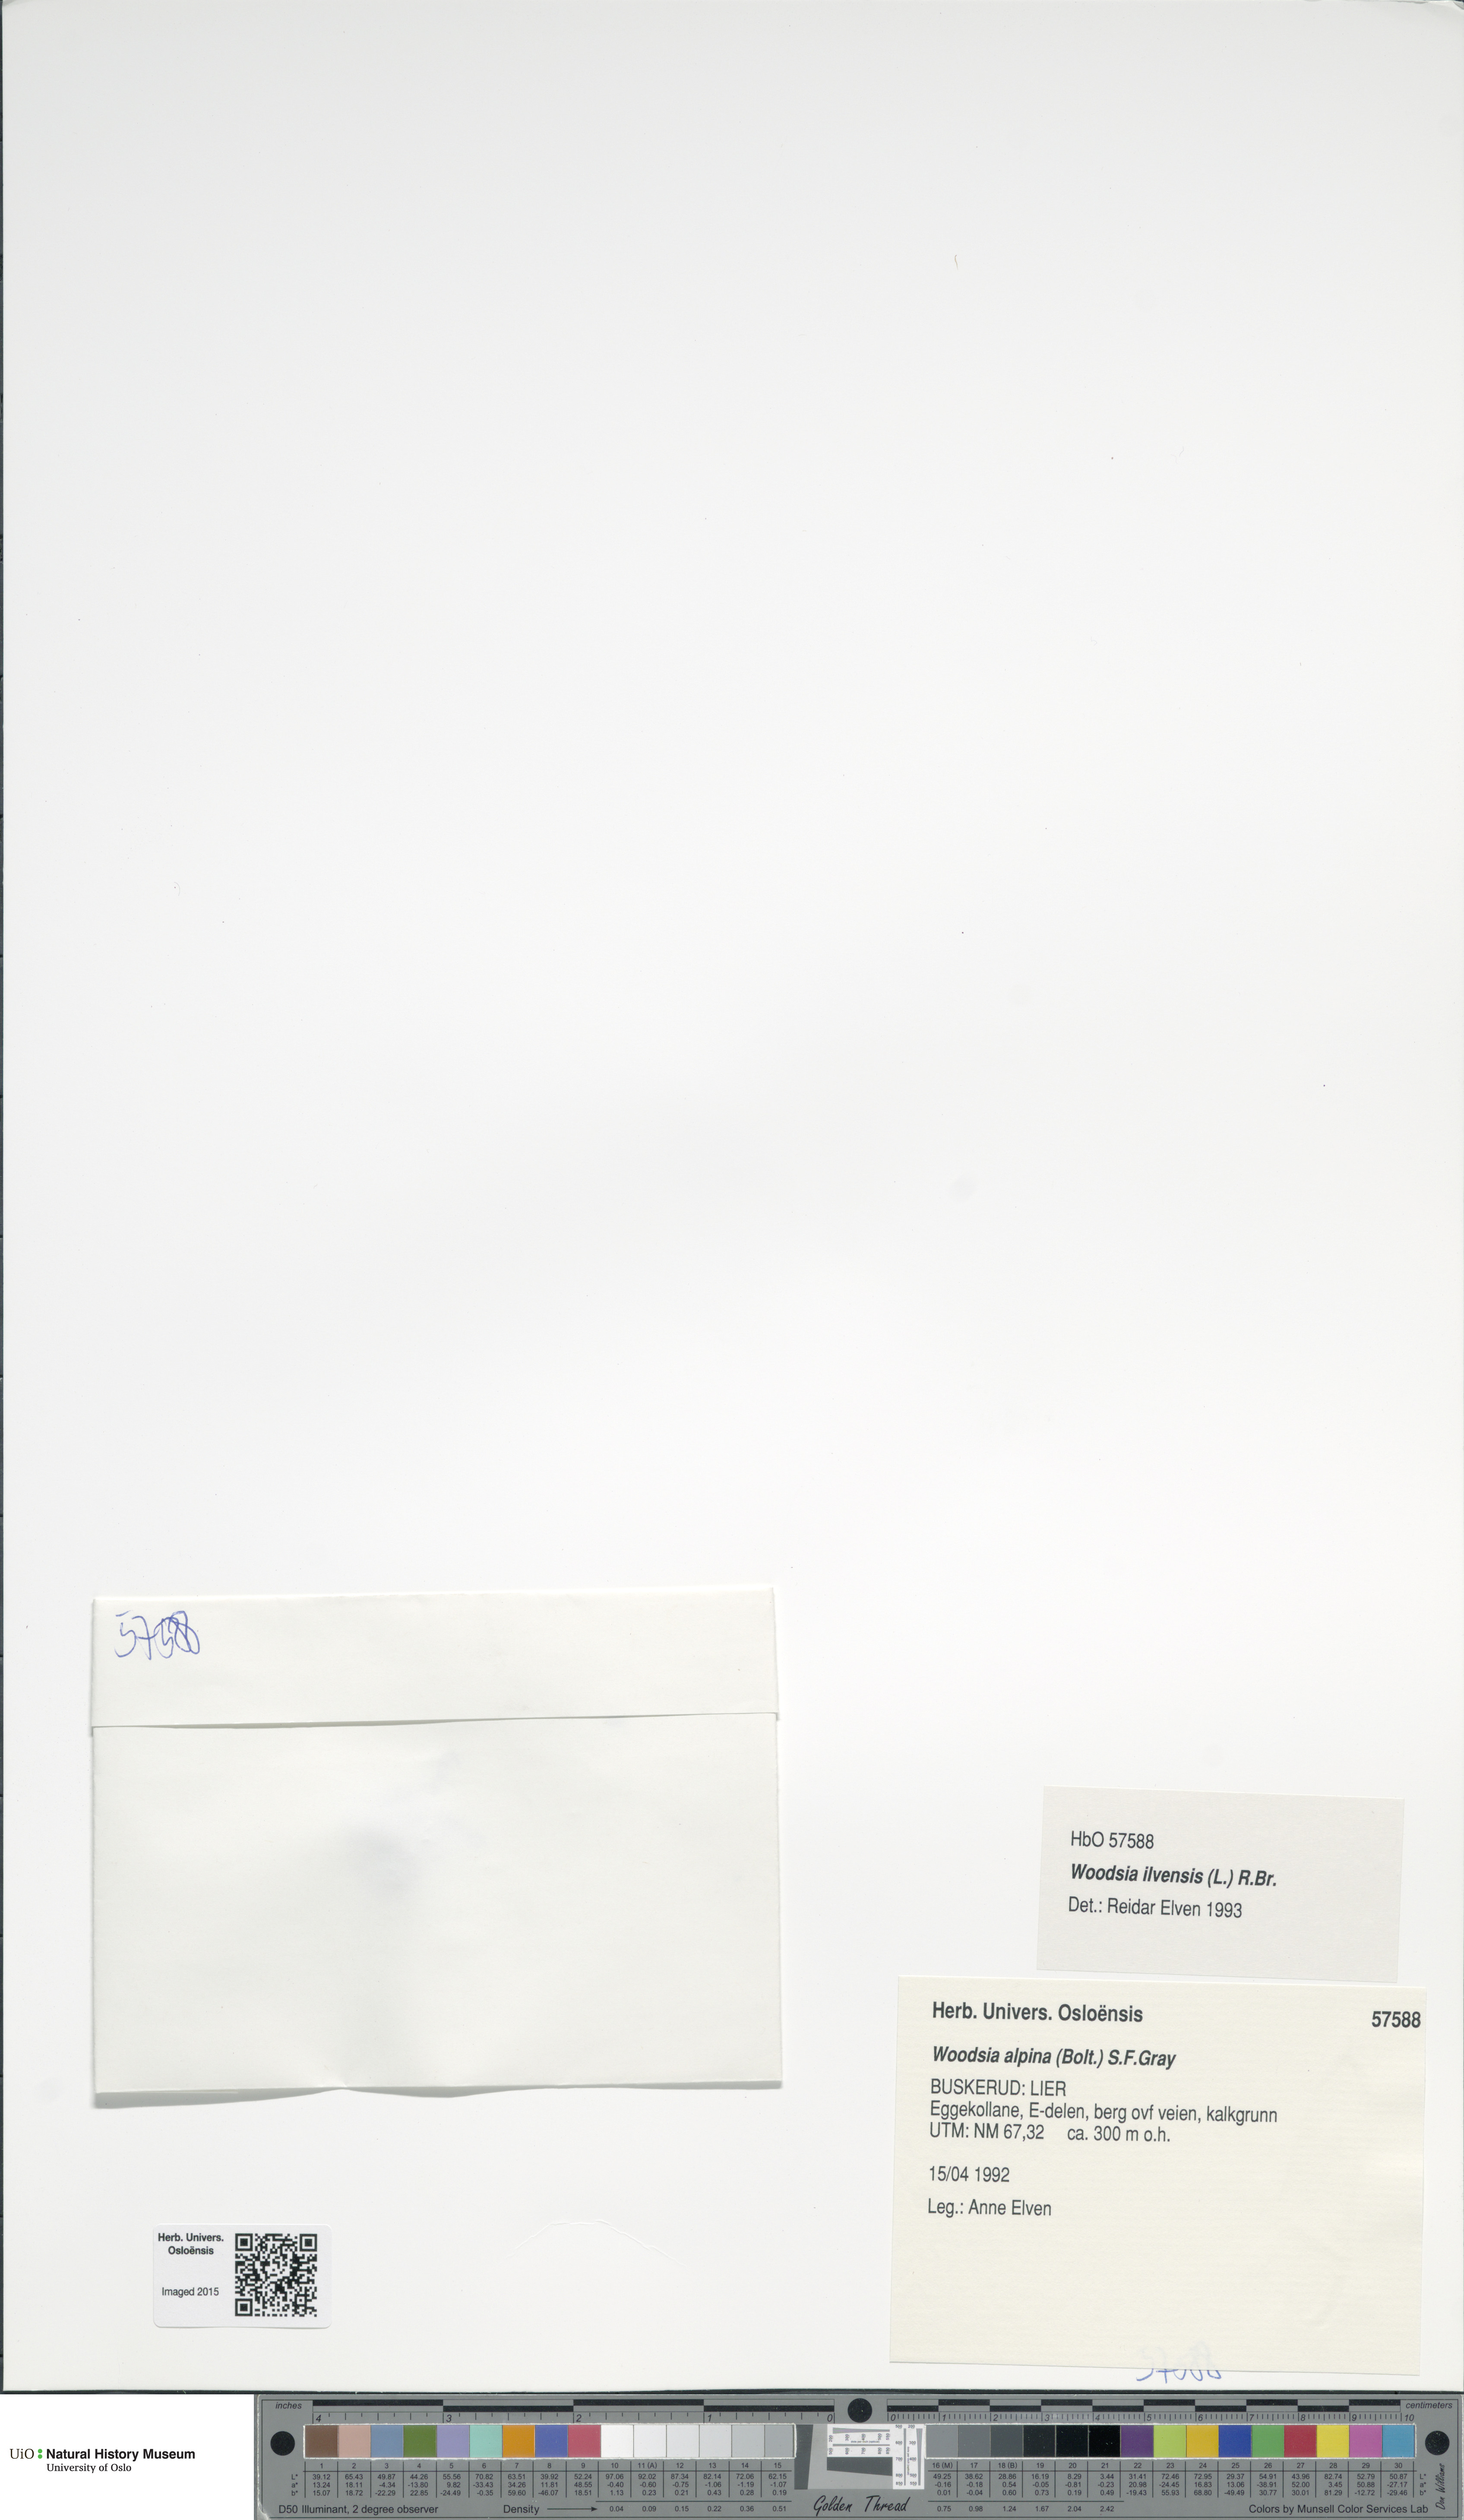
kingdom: Plantae
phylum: Tracheophyta
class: Polypodiopsida
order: Polypodiales
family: Woodsiaceae
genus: Woodsia
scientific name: Woodsia ilvensis
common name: Fragrant woodsia
